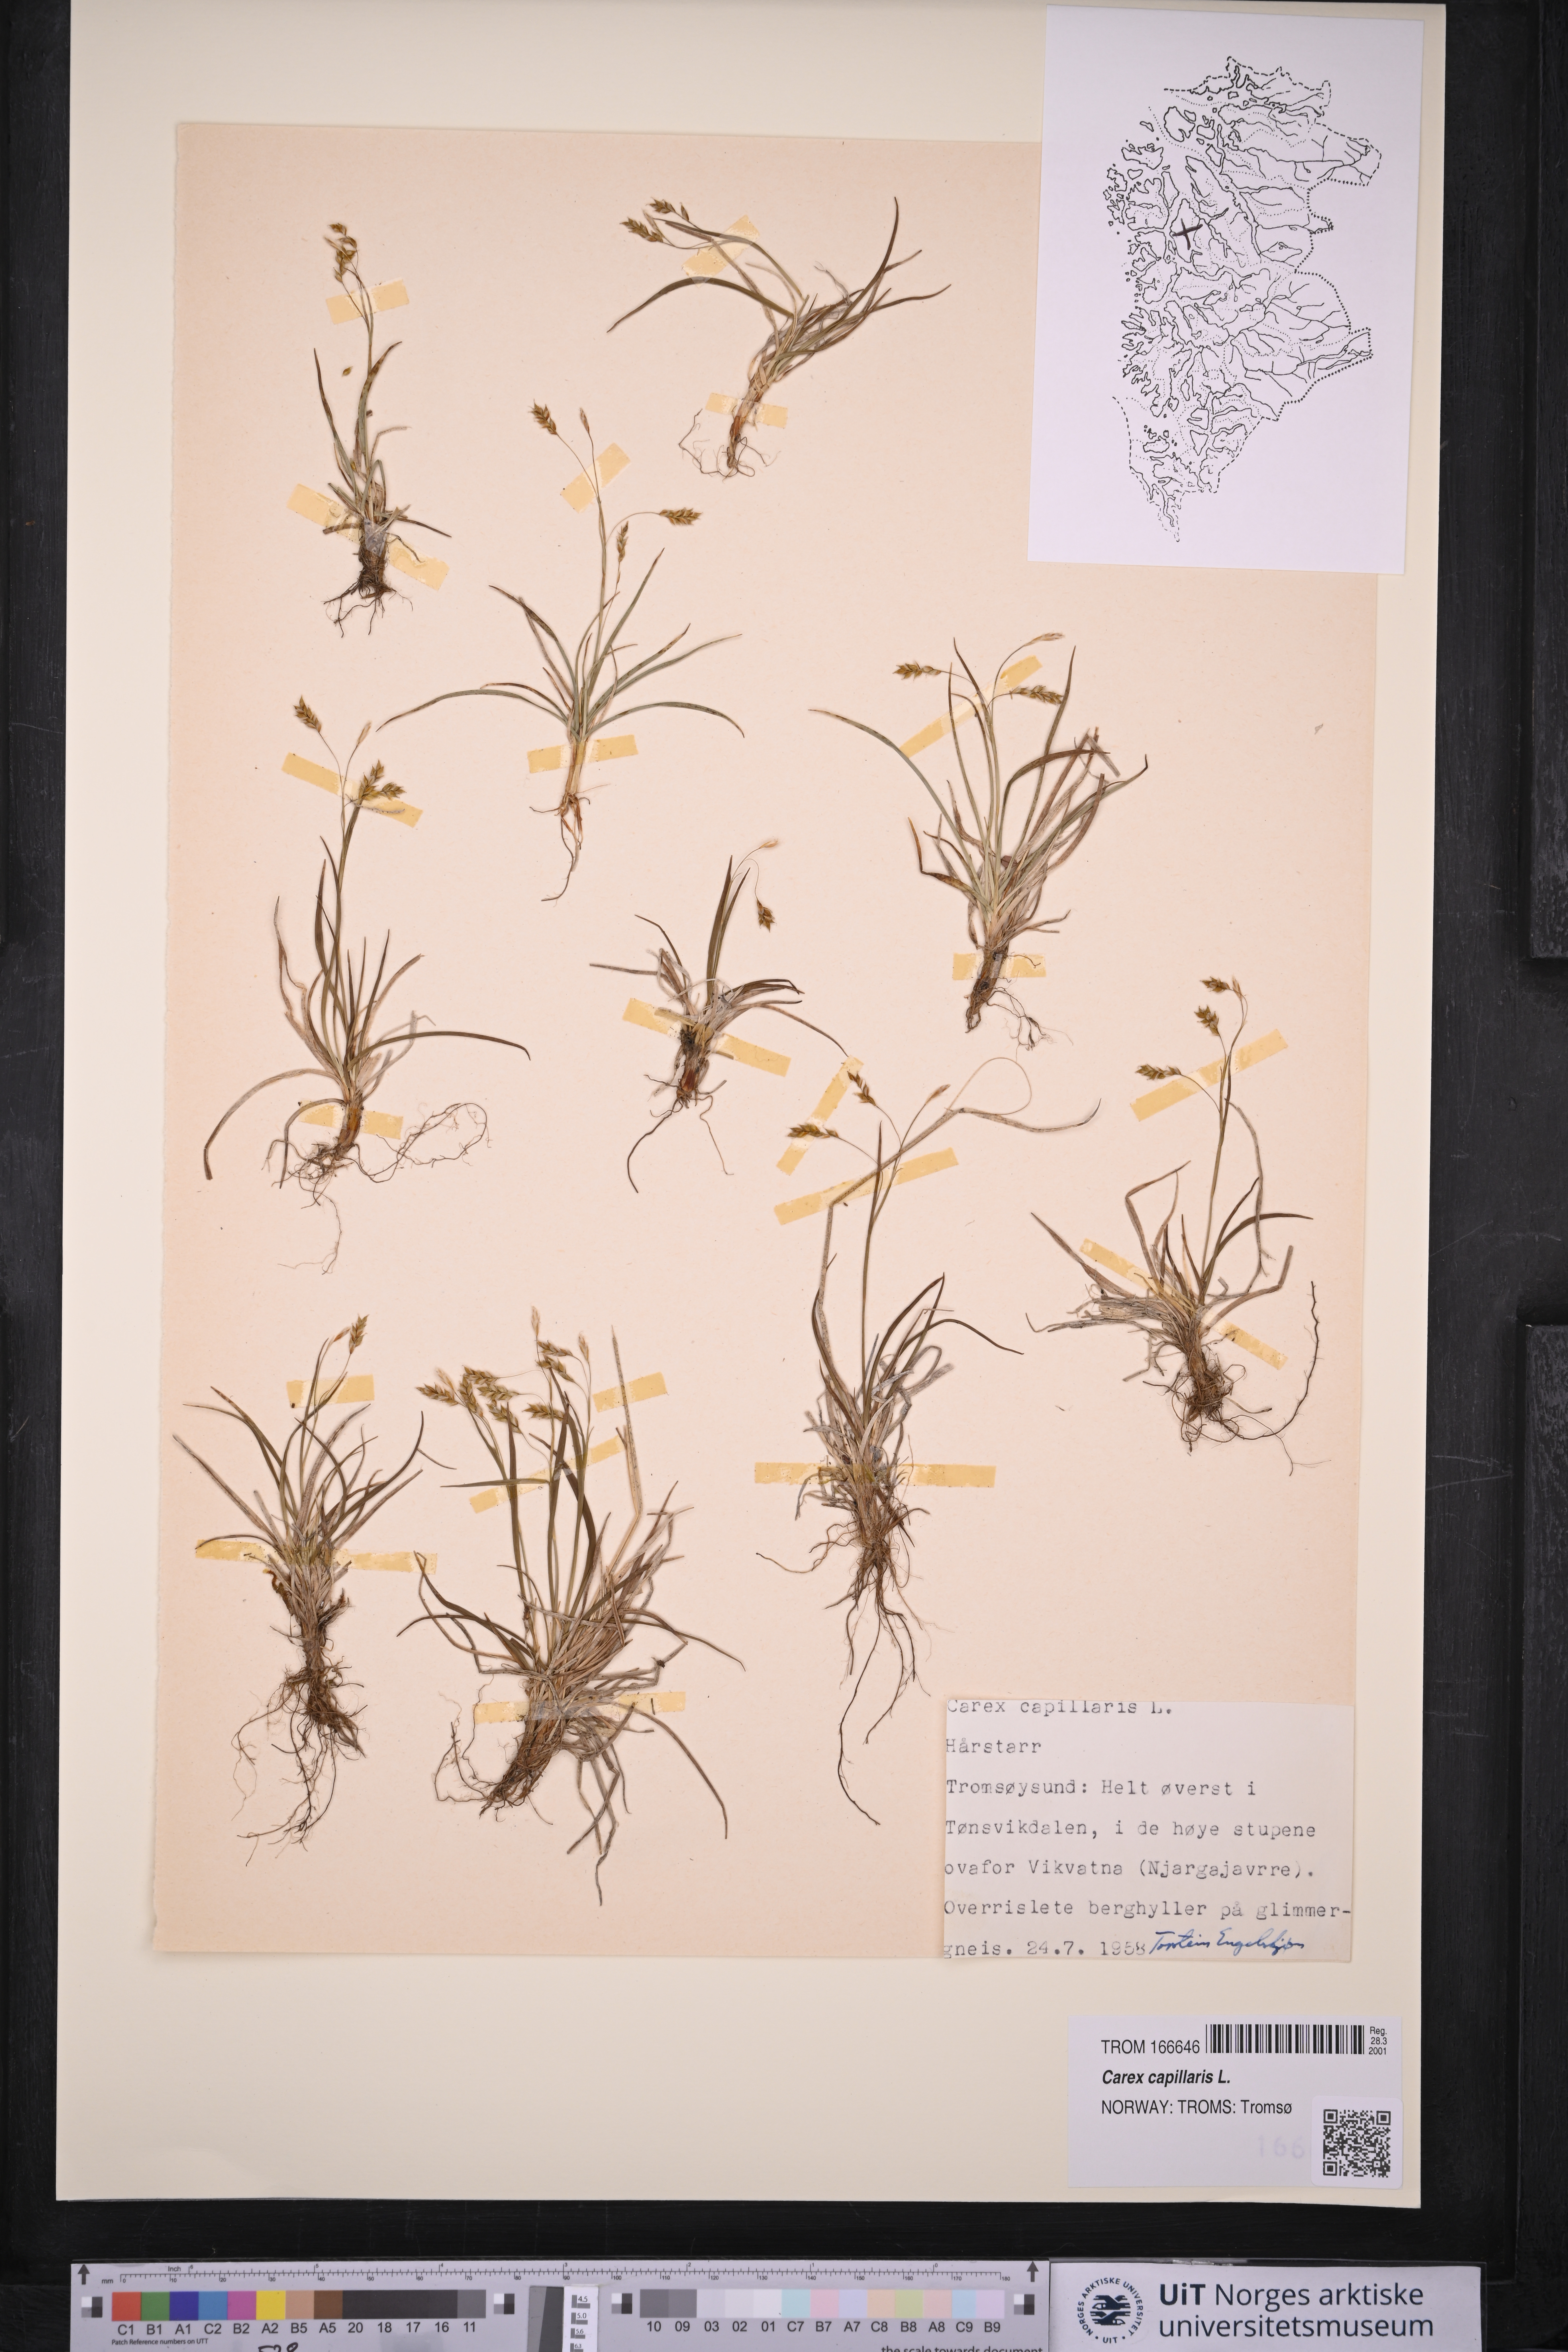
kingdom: Plantae
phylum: Tracheophyta
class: Liliopsida
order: Poales
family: Cyperaceae
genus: Carex
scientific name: Carex capillaris
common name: Hair sedge
